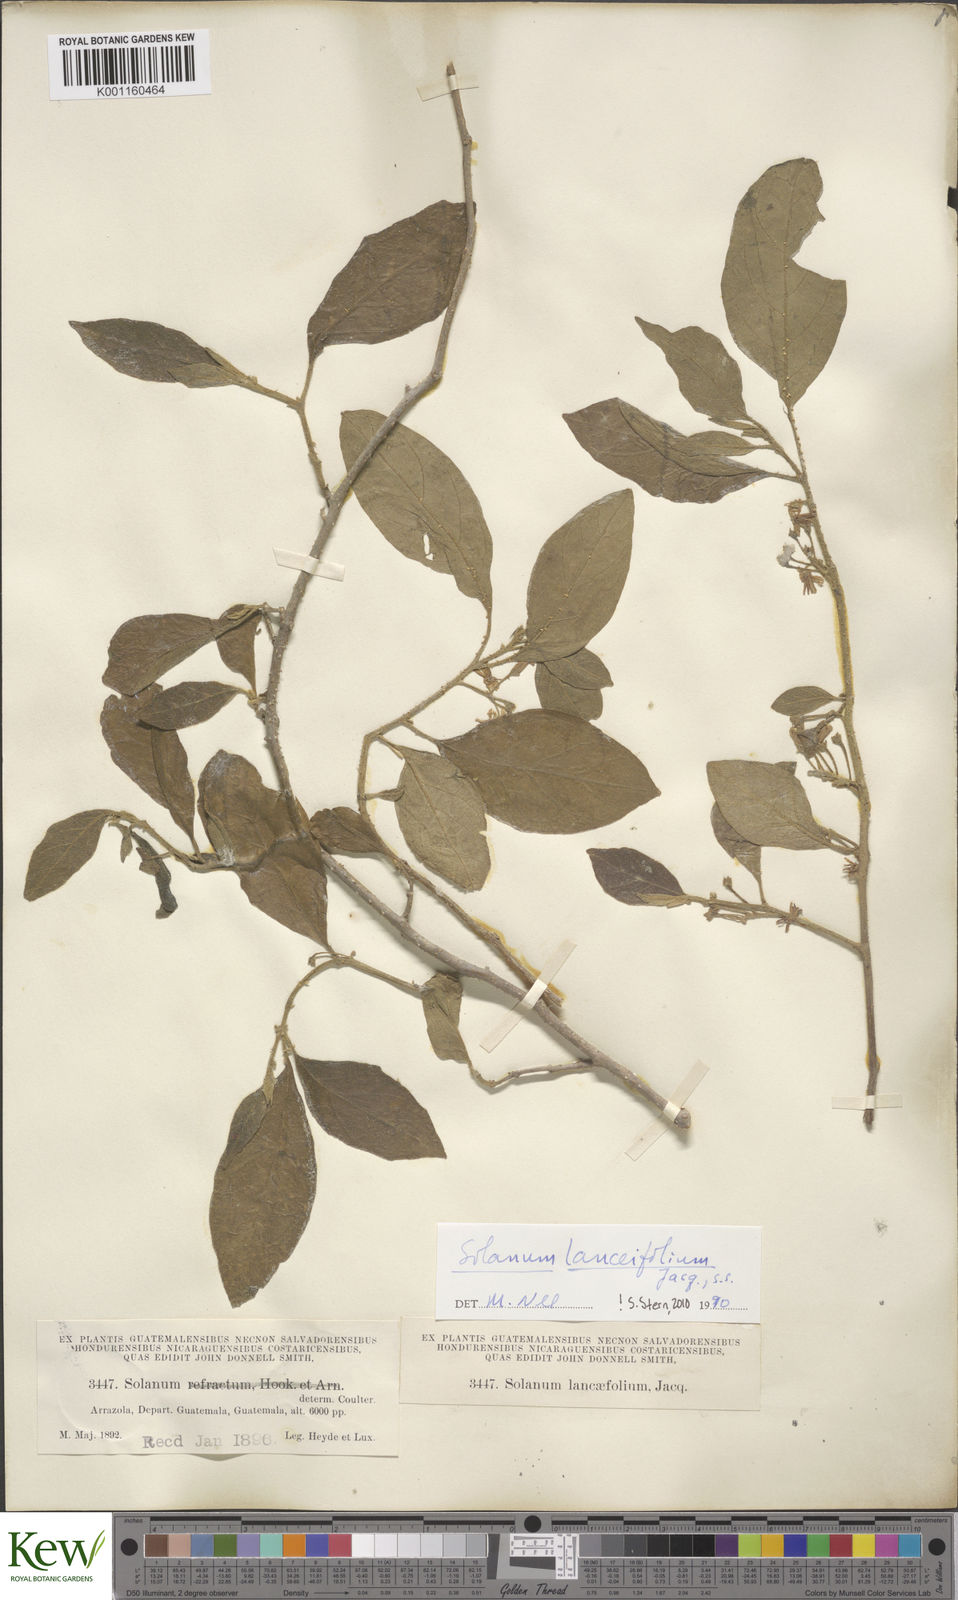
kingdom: Plantae
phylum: Tracheophyta
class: Magnoliopsida
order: Solanales
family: Solanaceae
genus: Solanum
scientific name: Solanum lanceifolium
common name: Lanceleaf nightshade
